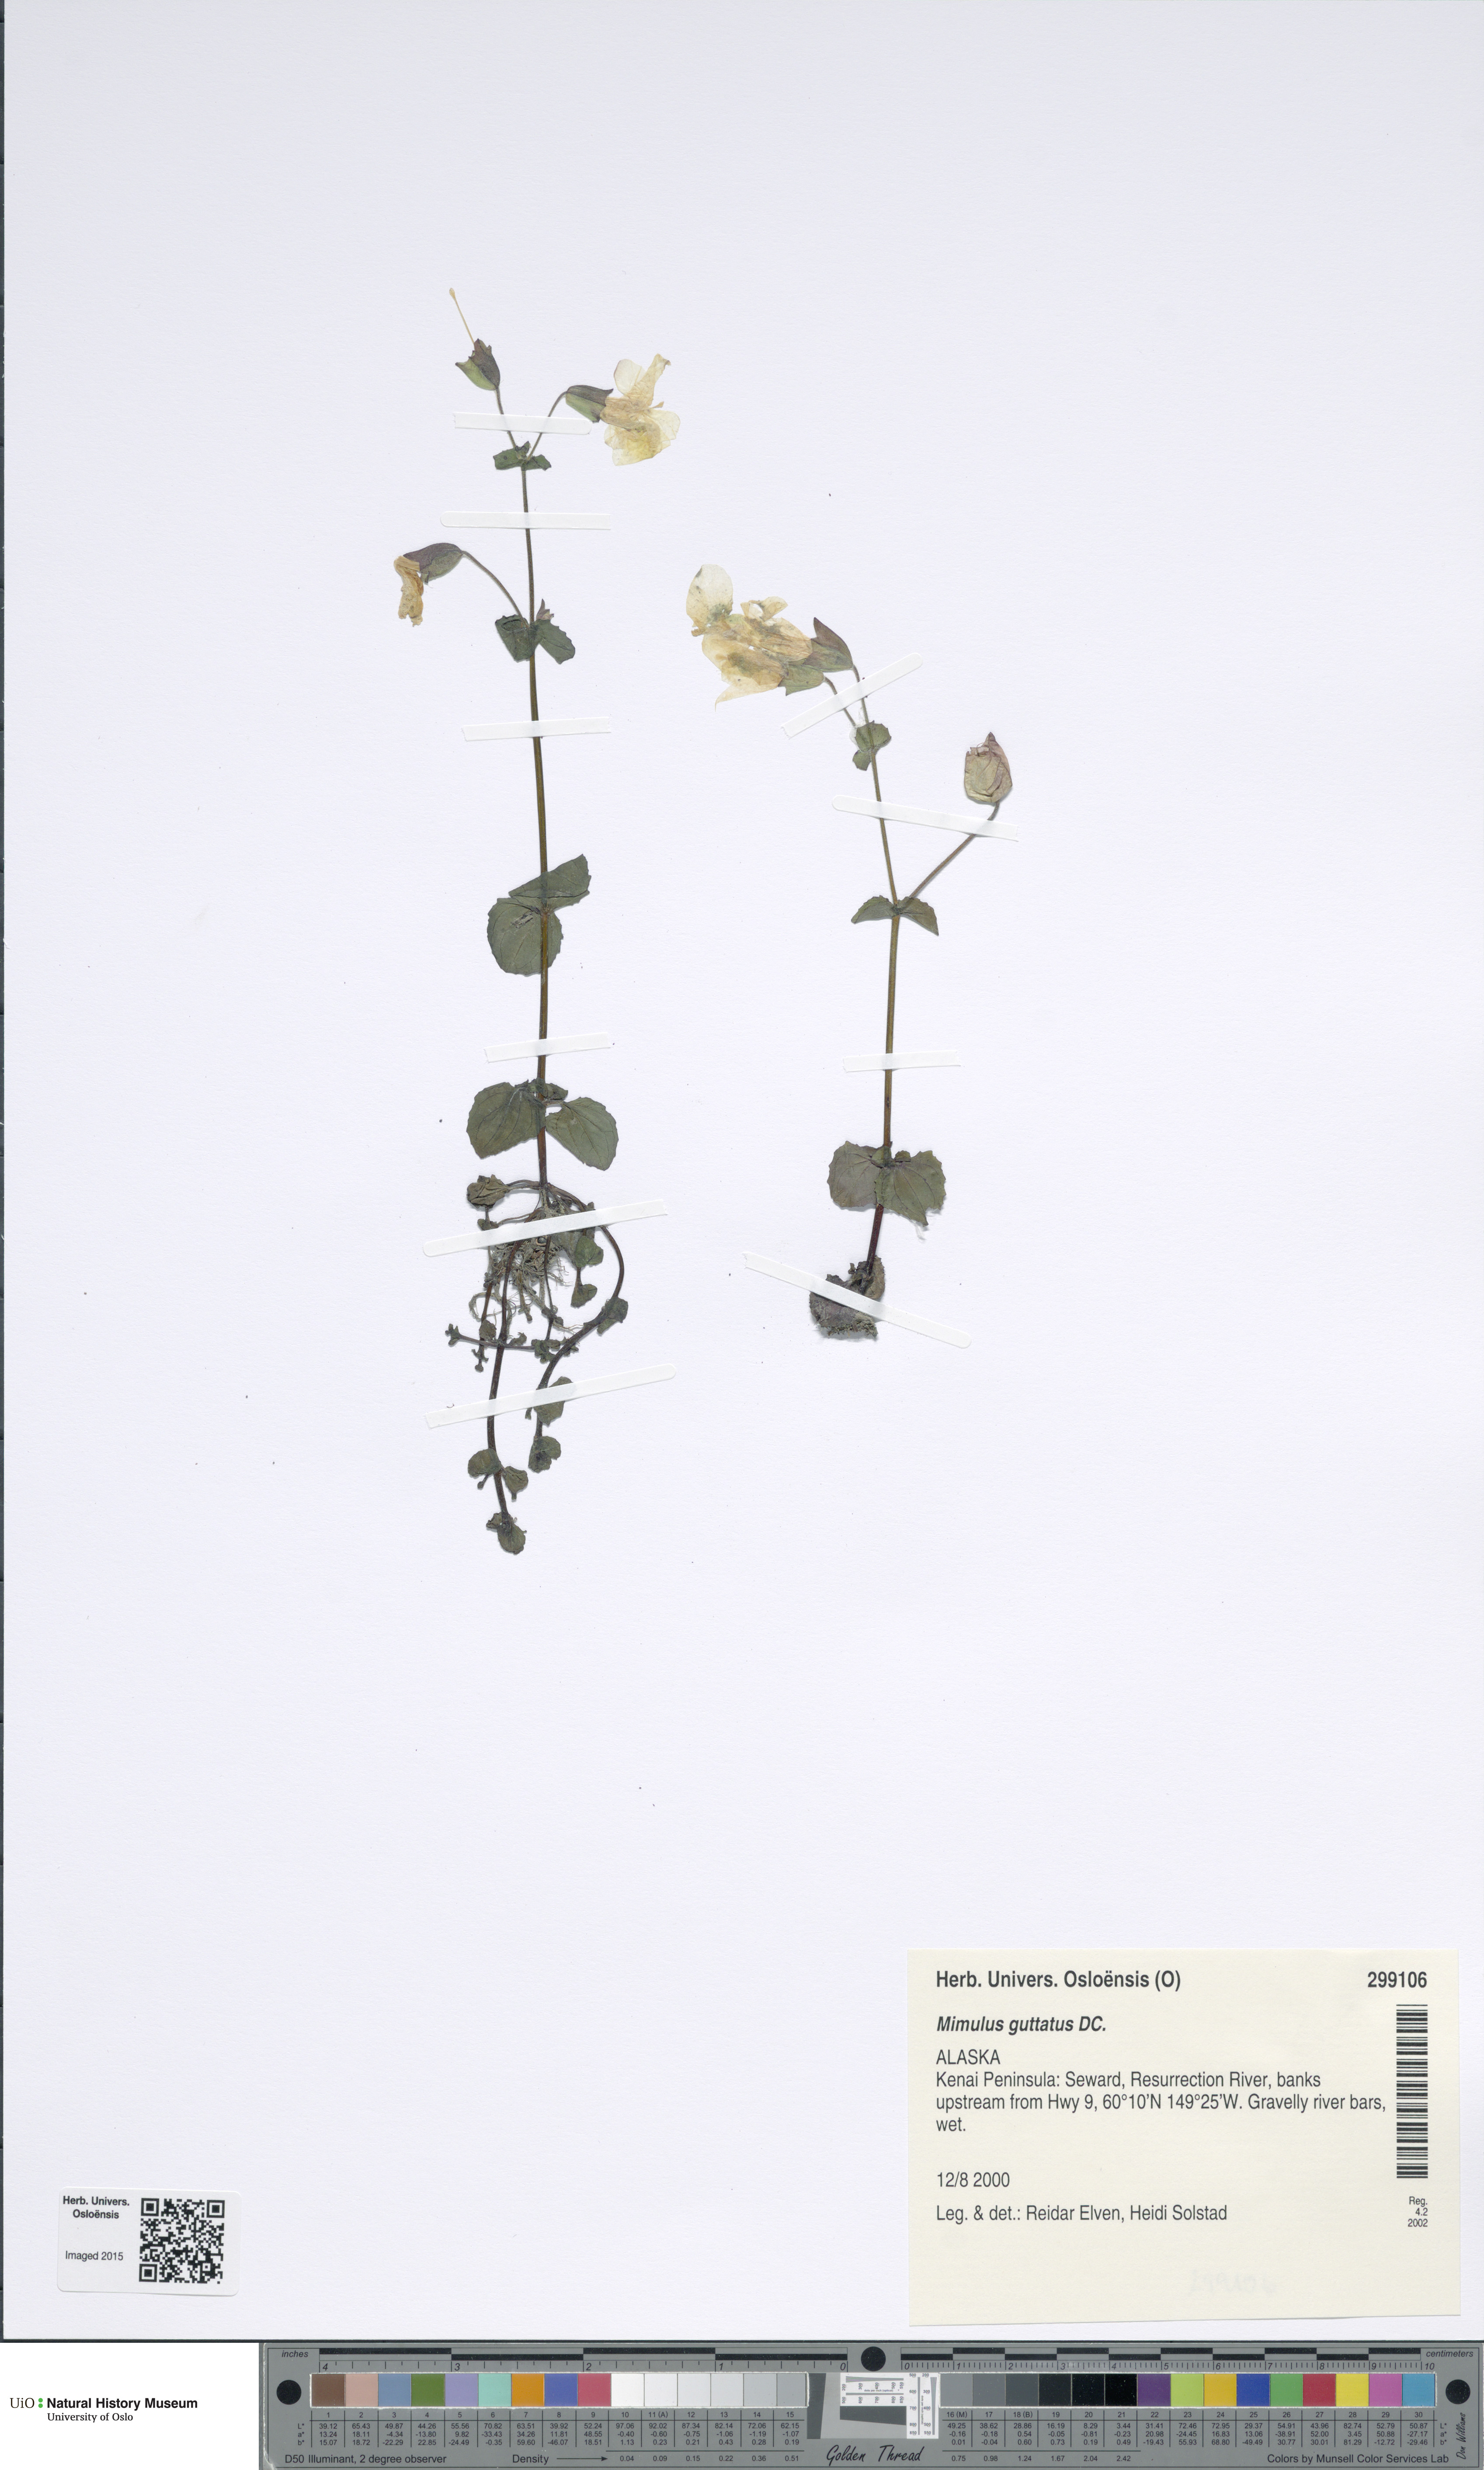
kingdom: Plantae
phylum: Tracheophyta
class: Magnoliopsida
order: Lamiales
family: Phrymaceae
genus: Erythranthe
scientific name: Erythranthe guttata
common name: Monkeyflower
